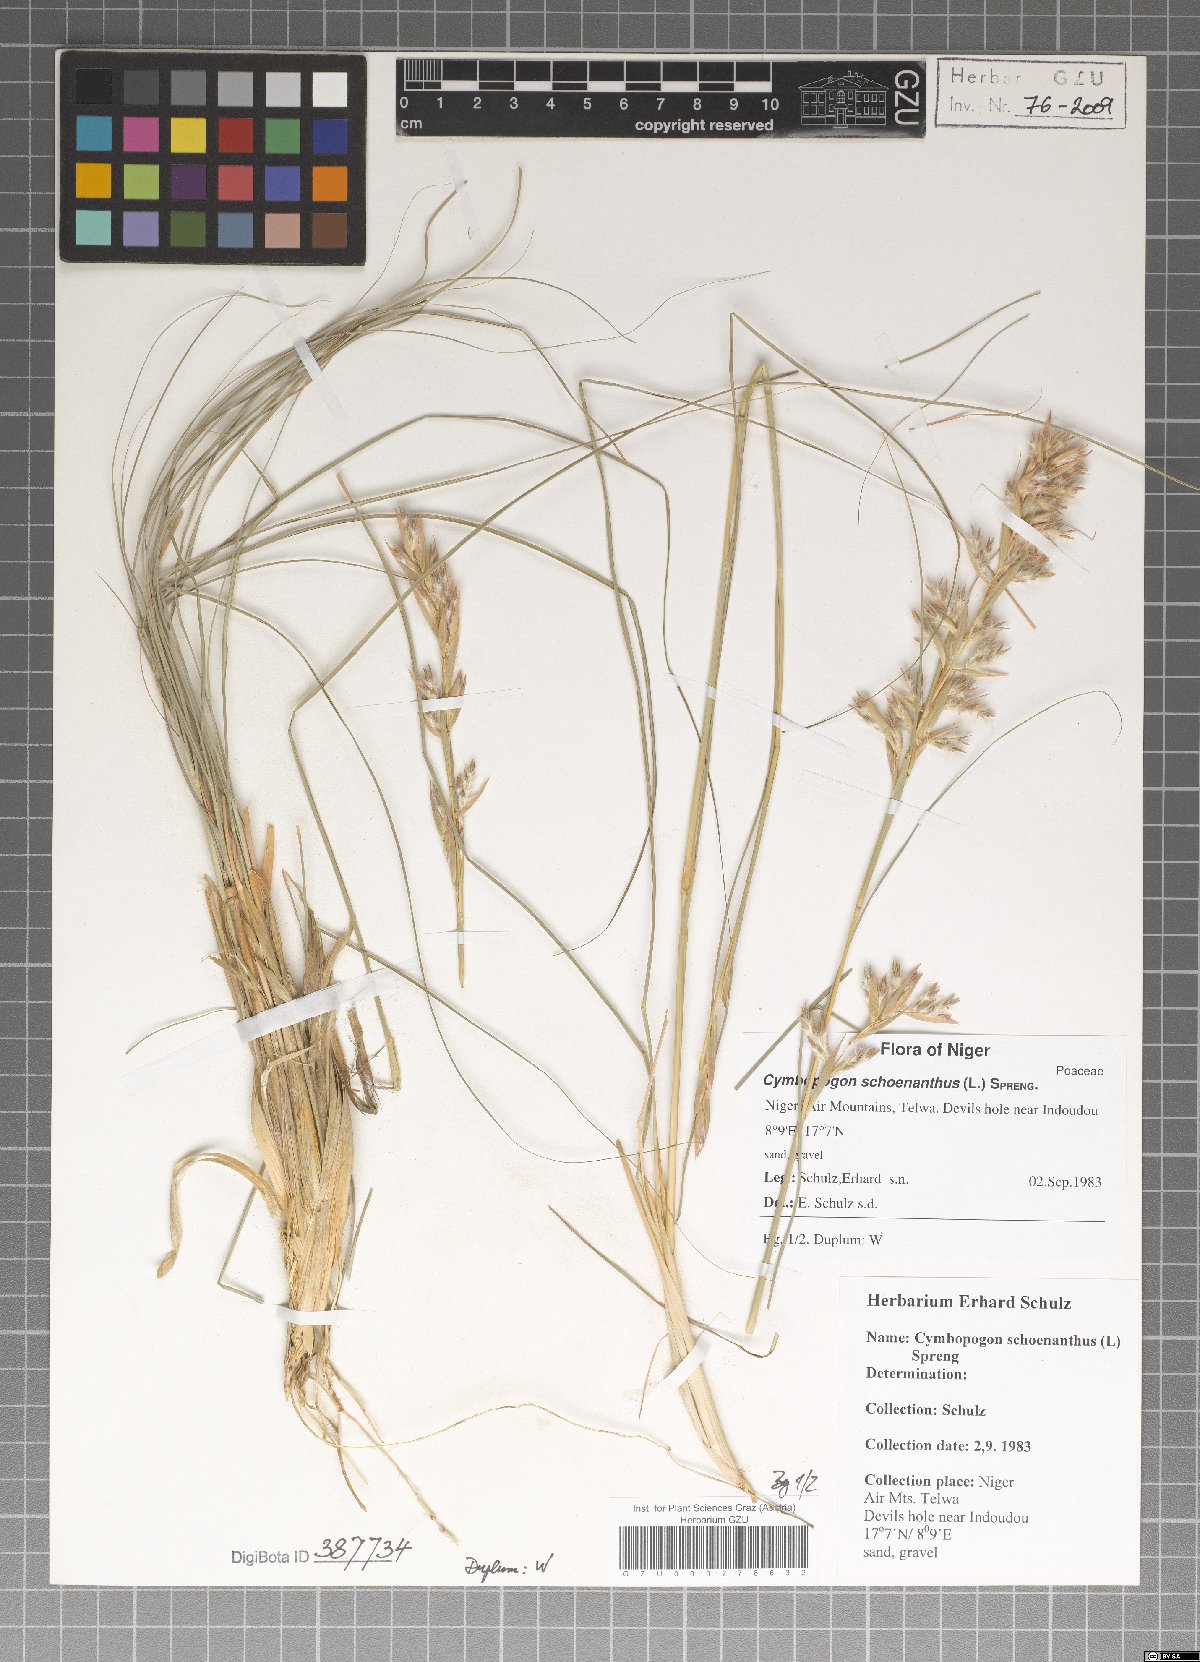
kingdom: Plantae
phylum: Tracheophyta
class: Liliopsida
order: Poales
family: Poaceae
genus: Cymbopogon
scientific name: Cymbopogon schoenanthus
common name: Geranium grass
